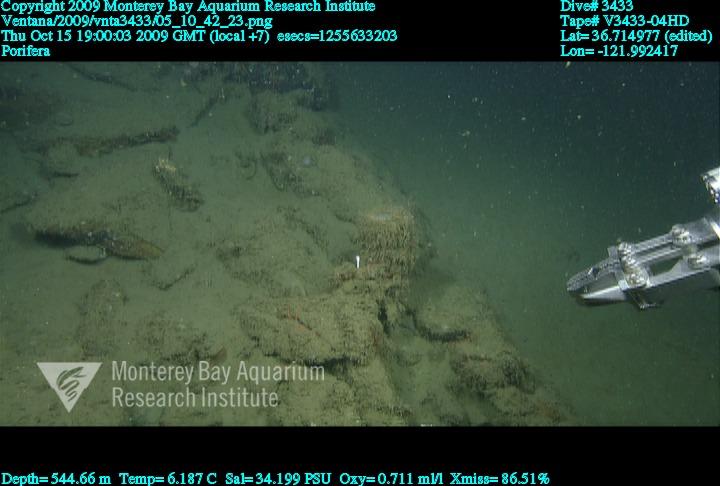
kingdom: Animalia
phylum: Porifera
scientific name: Porifera
